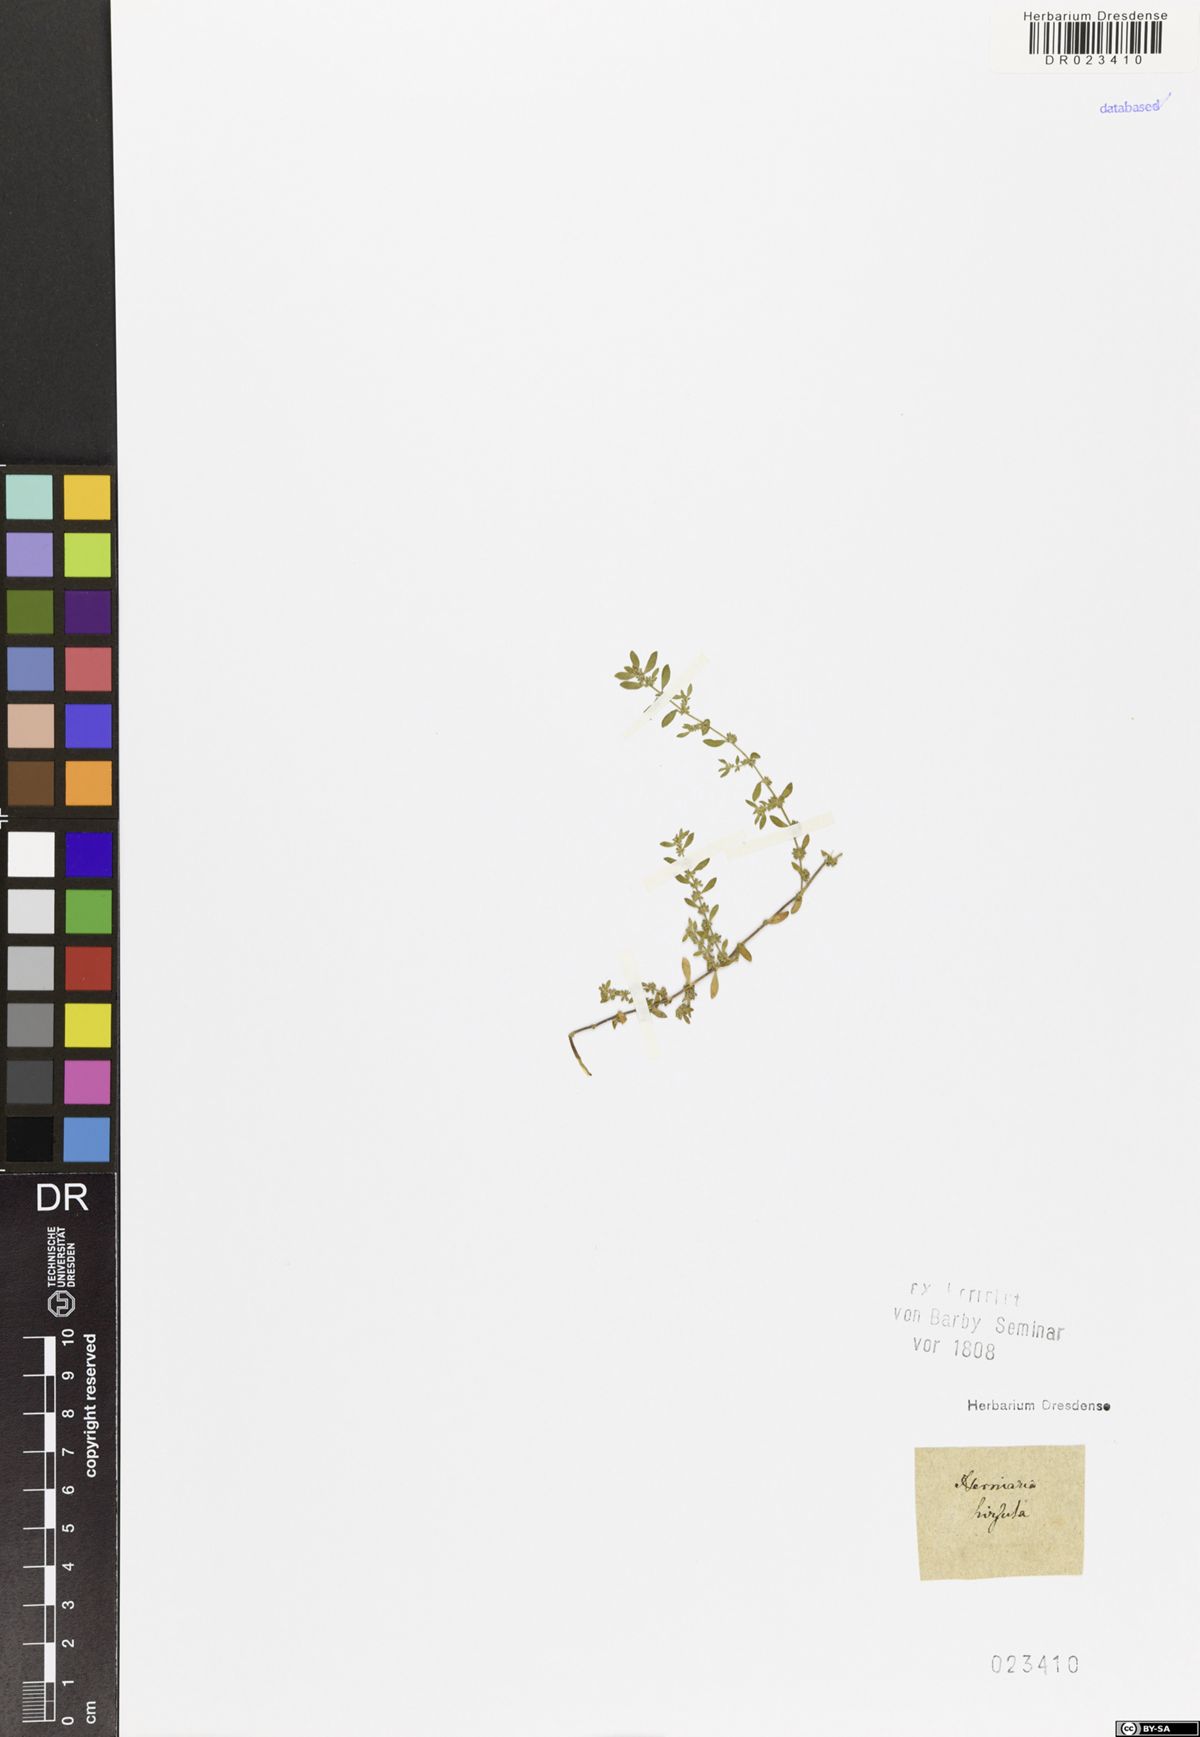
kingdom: Plantae
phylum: Tracheophyta
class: Magnoliopsida
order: Caryophyllales
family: Caryophyllaceae
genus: Herniaria
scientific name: Herniaria hirsuta
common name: Hairy rupturewort
